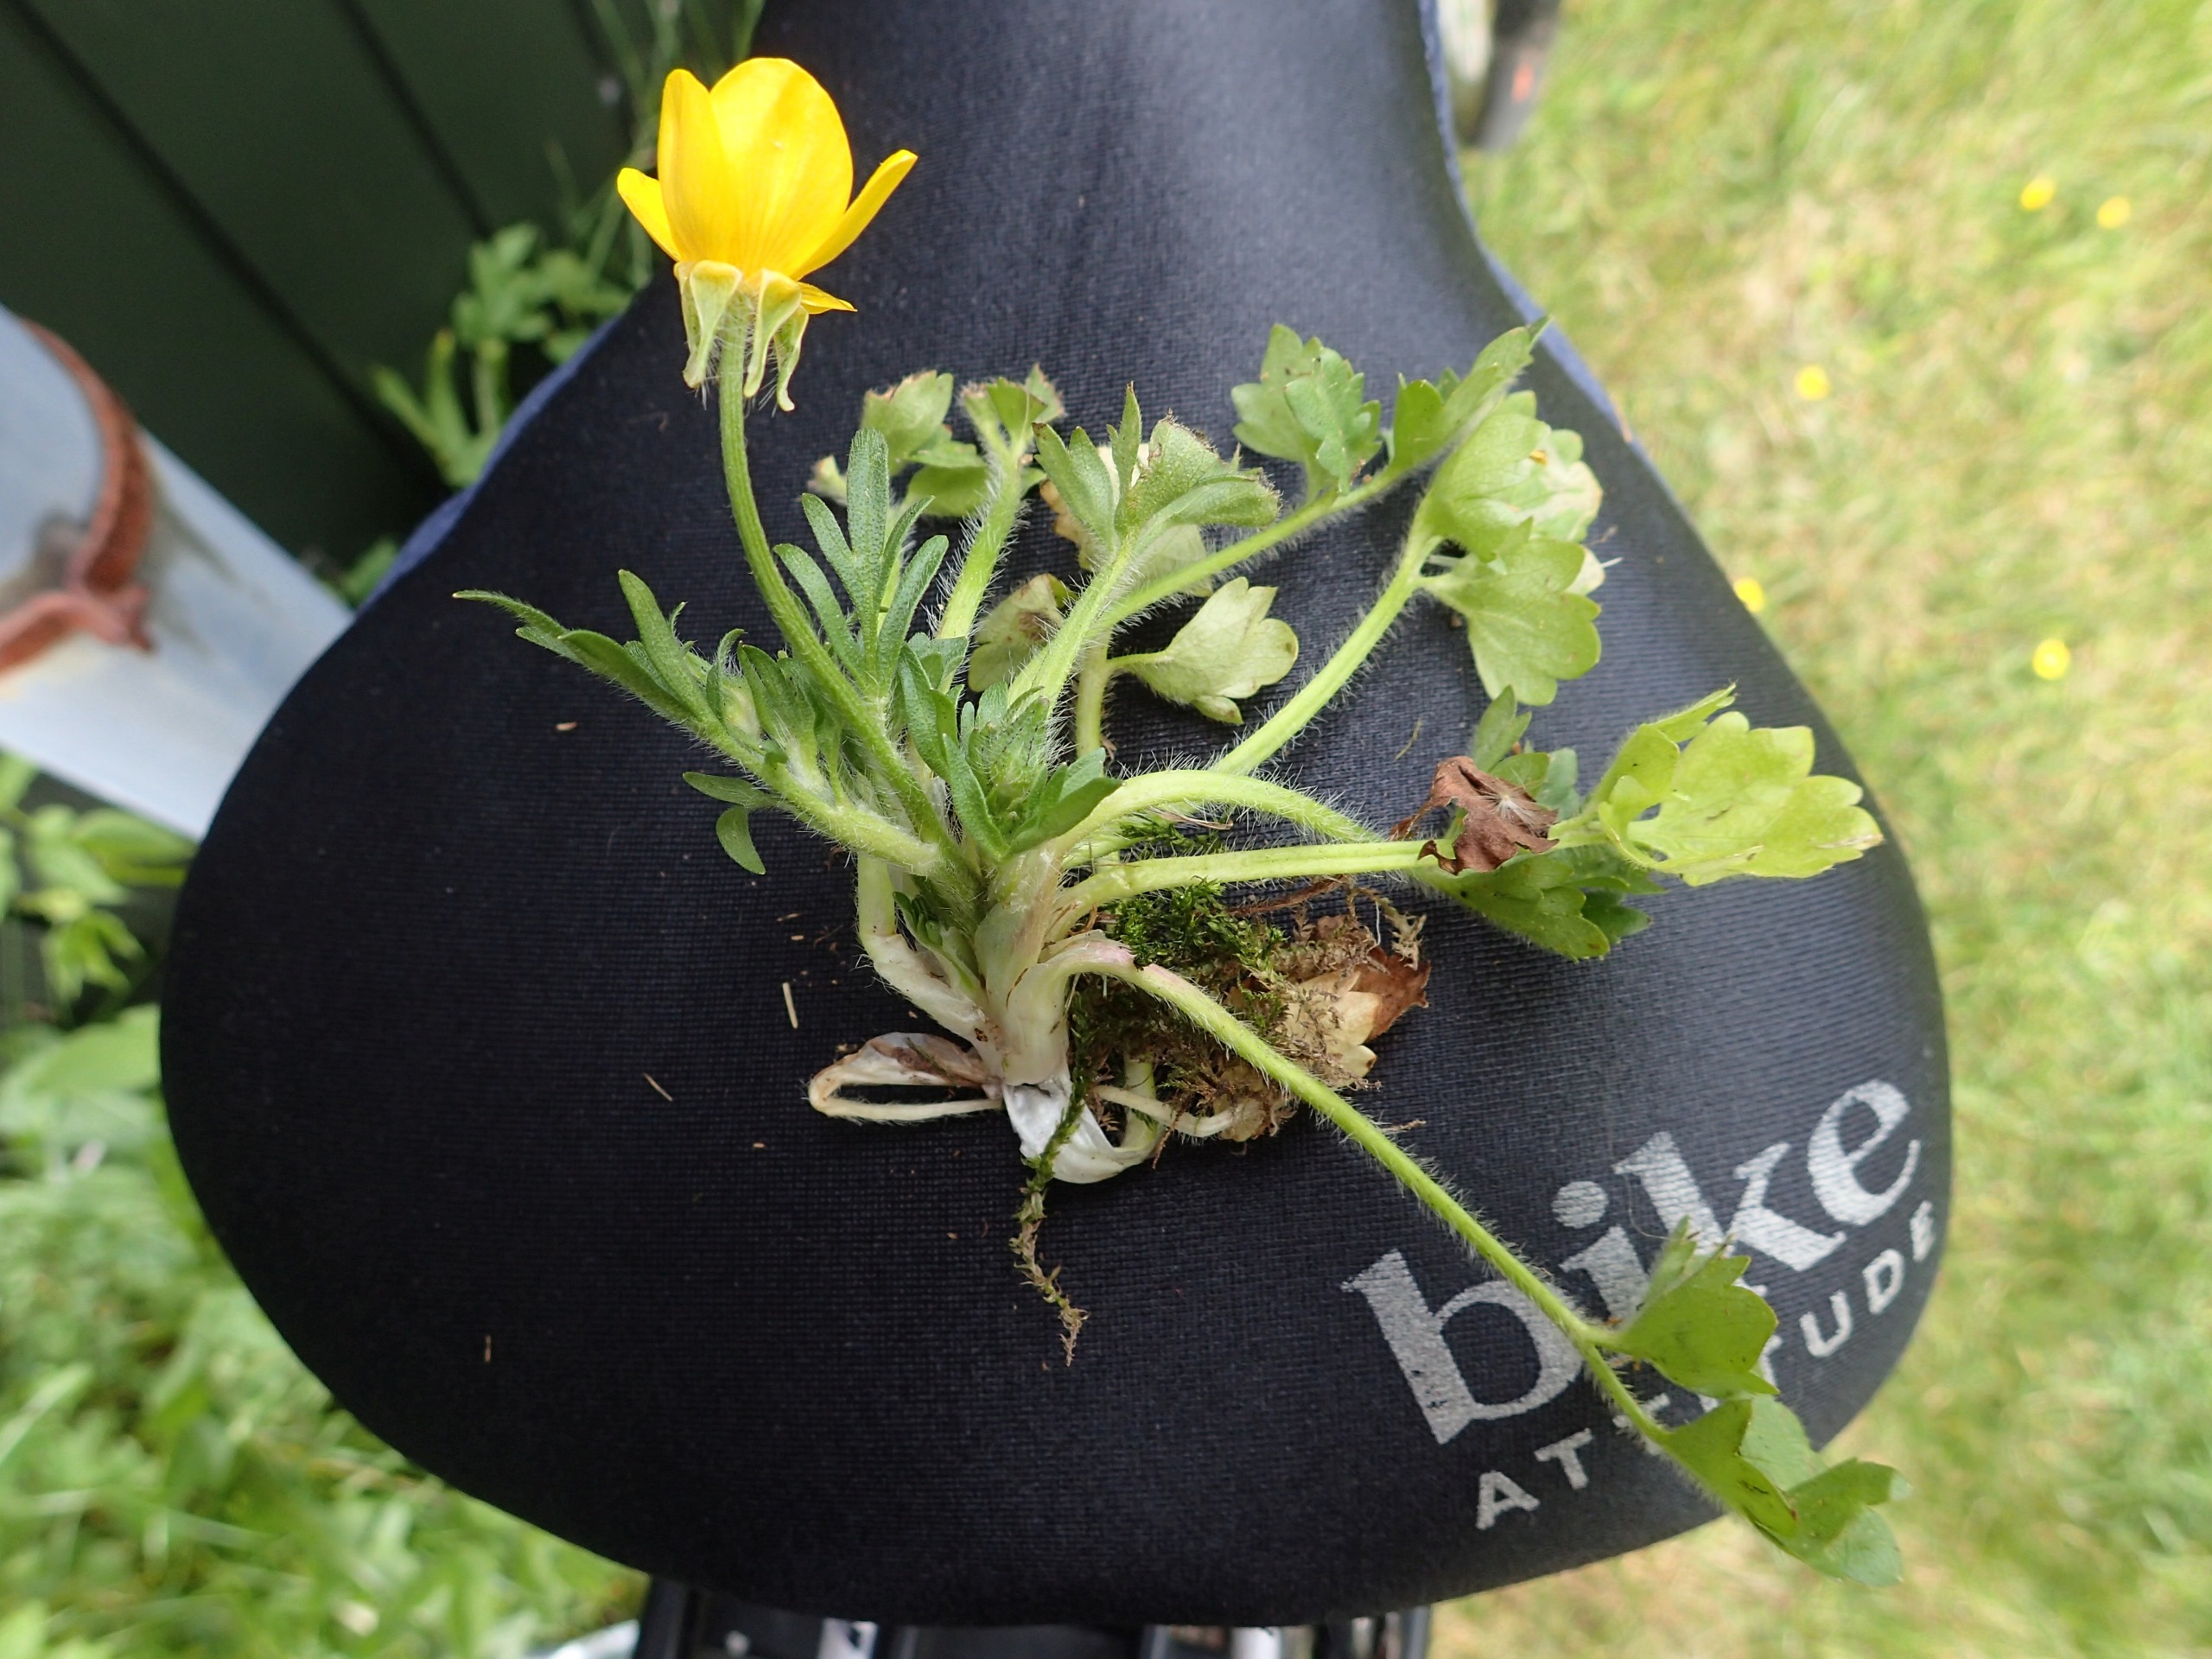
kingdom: Plantae
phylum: Tracheophyta
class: Magnoliopsida
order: Ranunculales
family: Ranunculaceae
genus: Ranunculus
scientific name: Ranunculus sardous
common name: Stivhåret ranunkel
